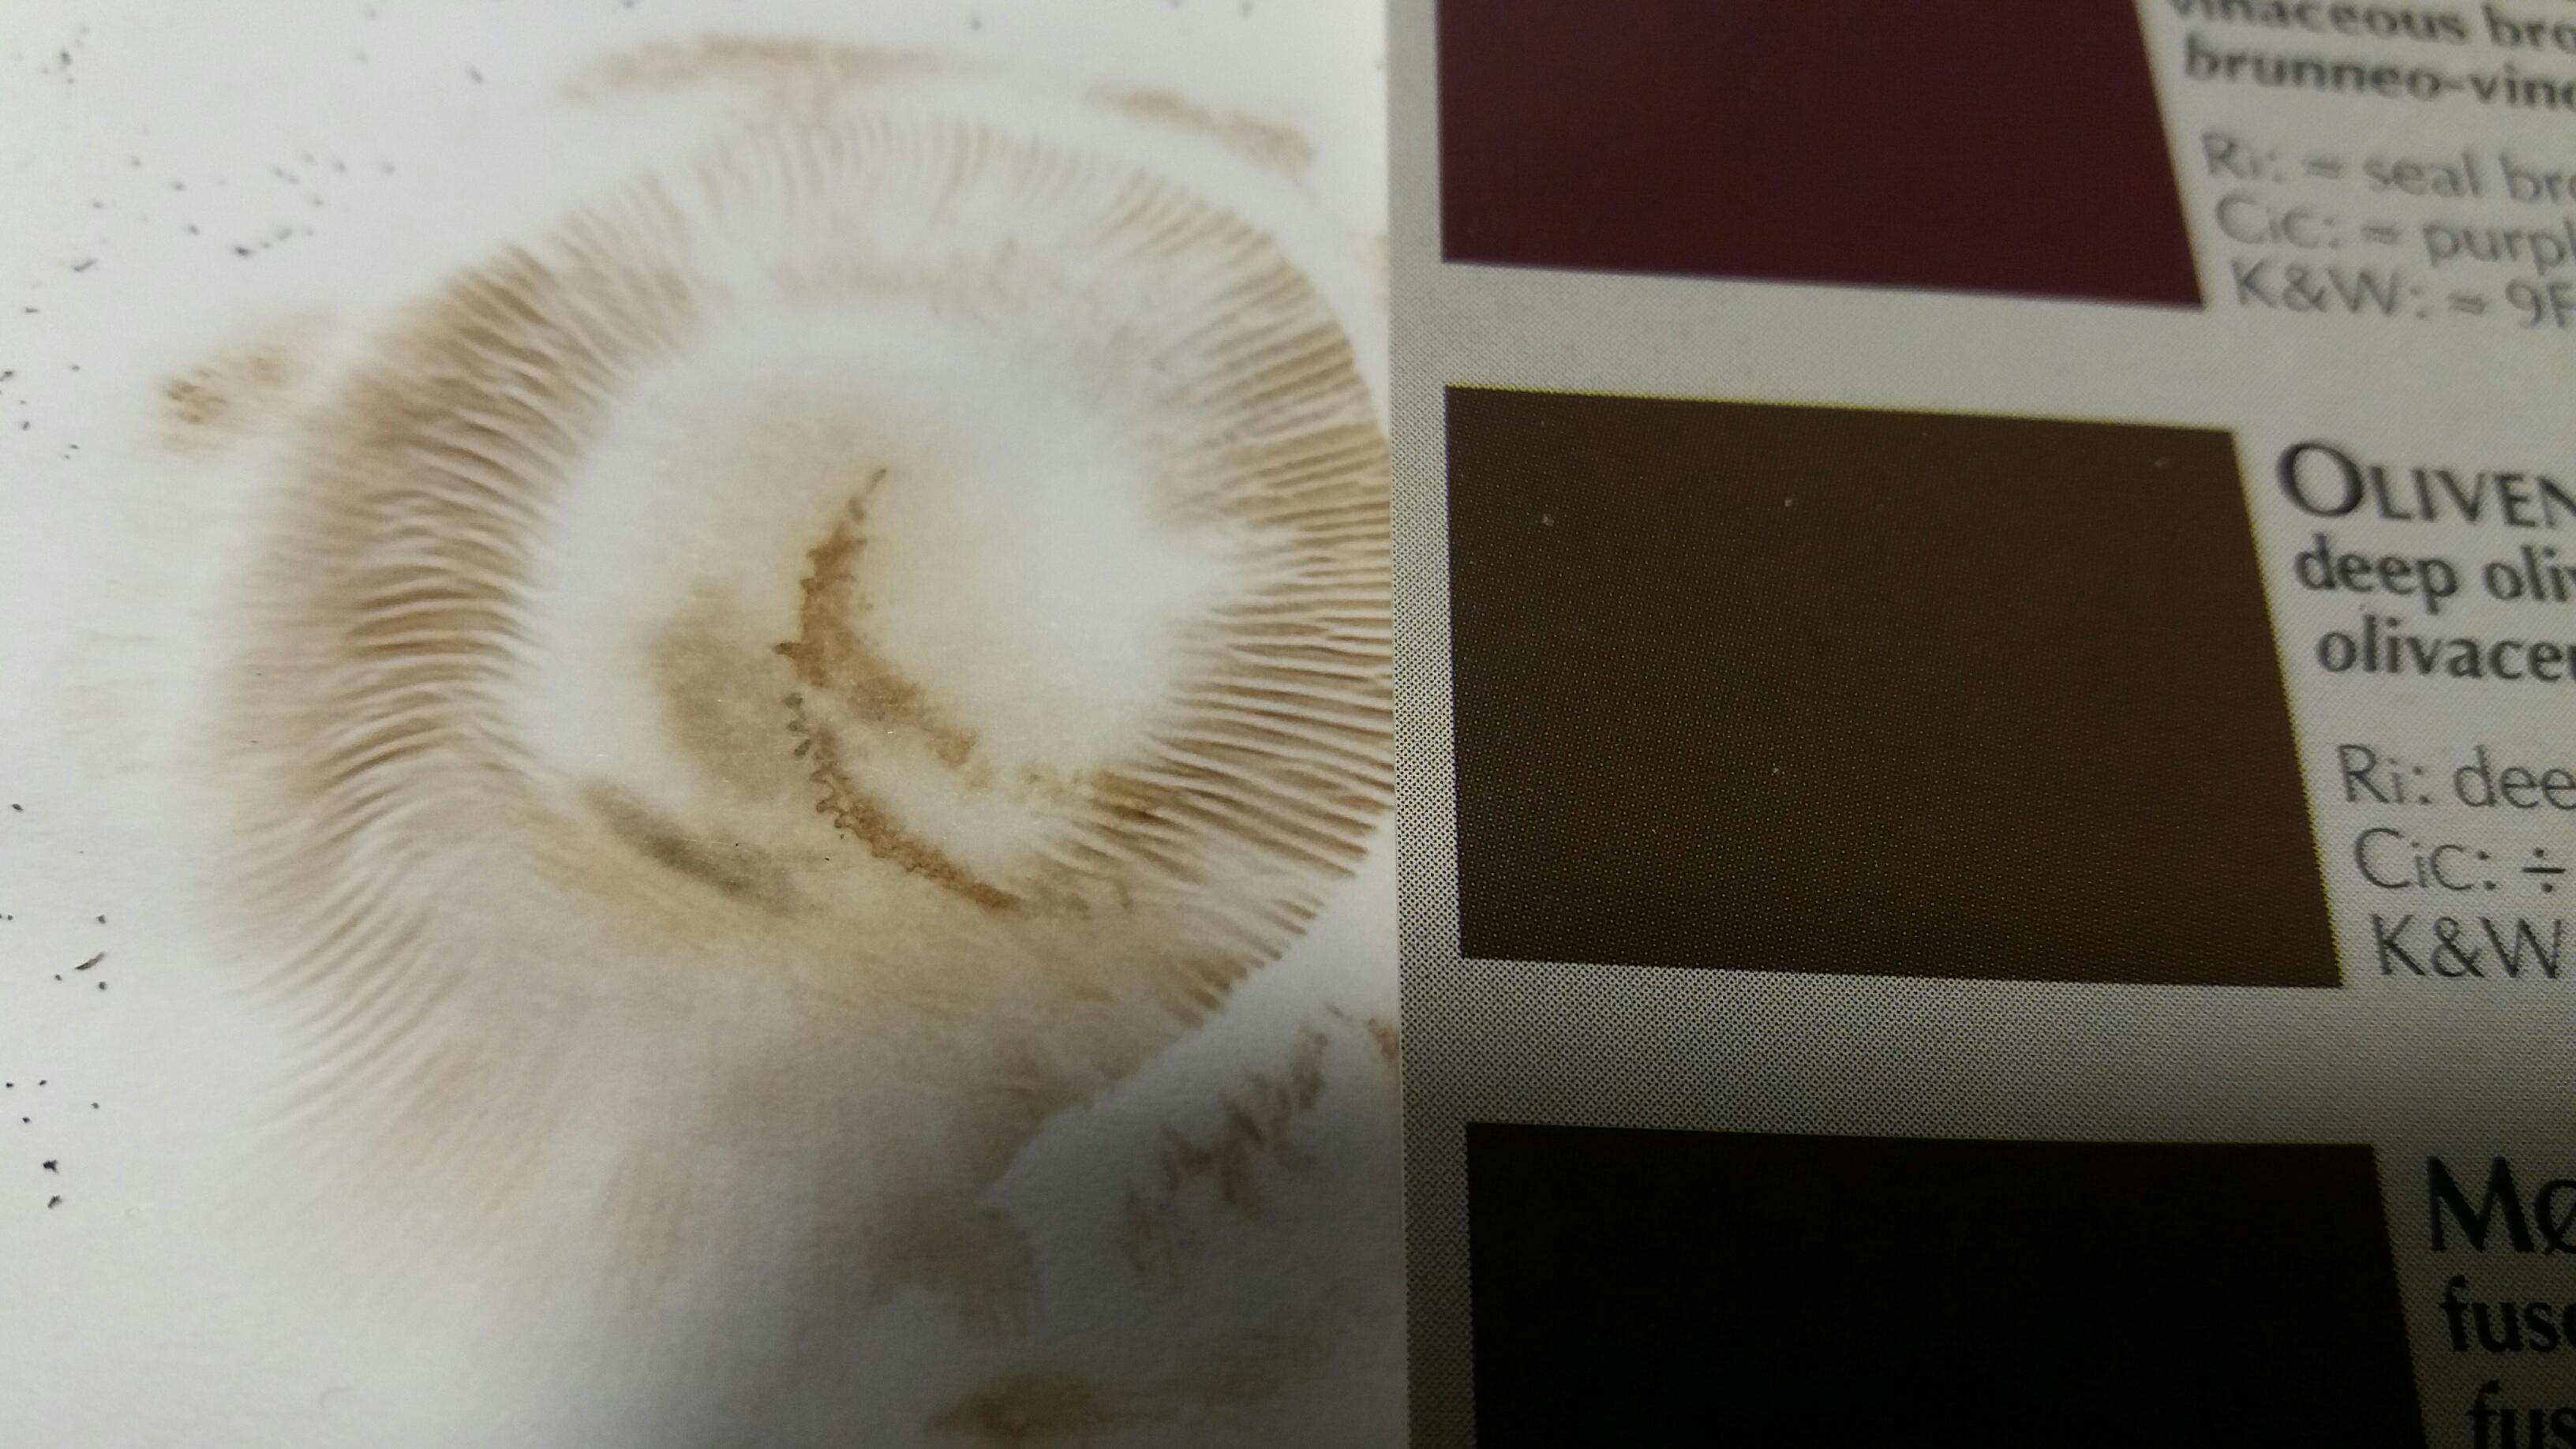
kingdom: Fungi
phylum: Basidiomycota
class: Agaricomycetes
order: Boletales
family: Paxillaceae
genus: Paxillus
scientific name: Paxillus ammoniavirescens
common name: olivensporet netbladhat
